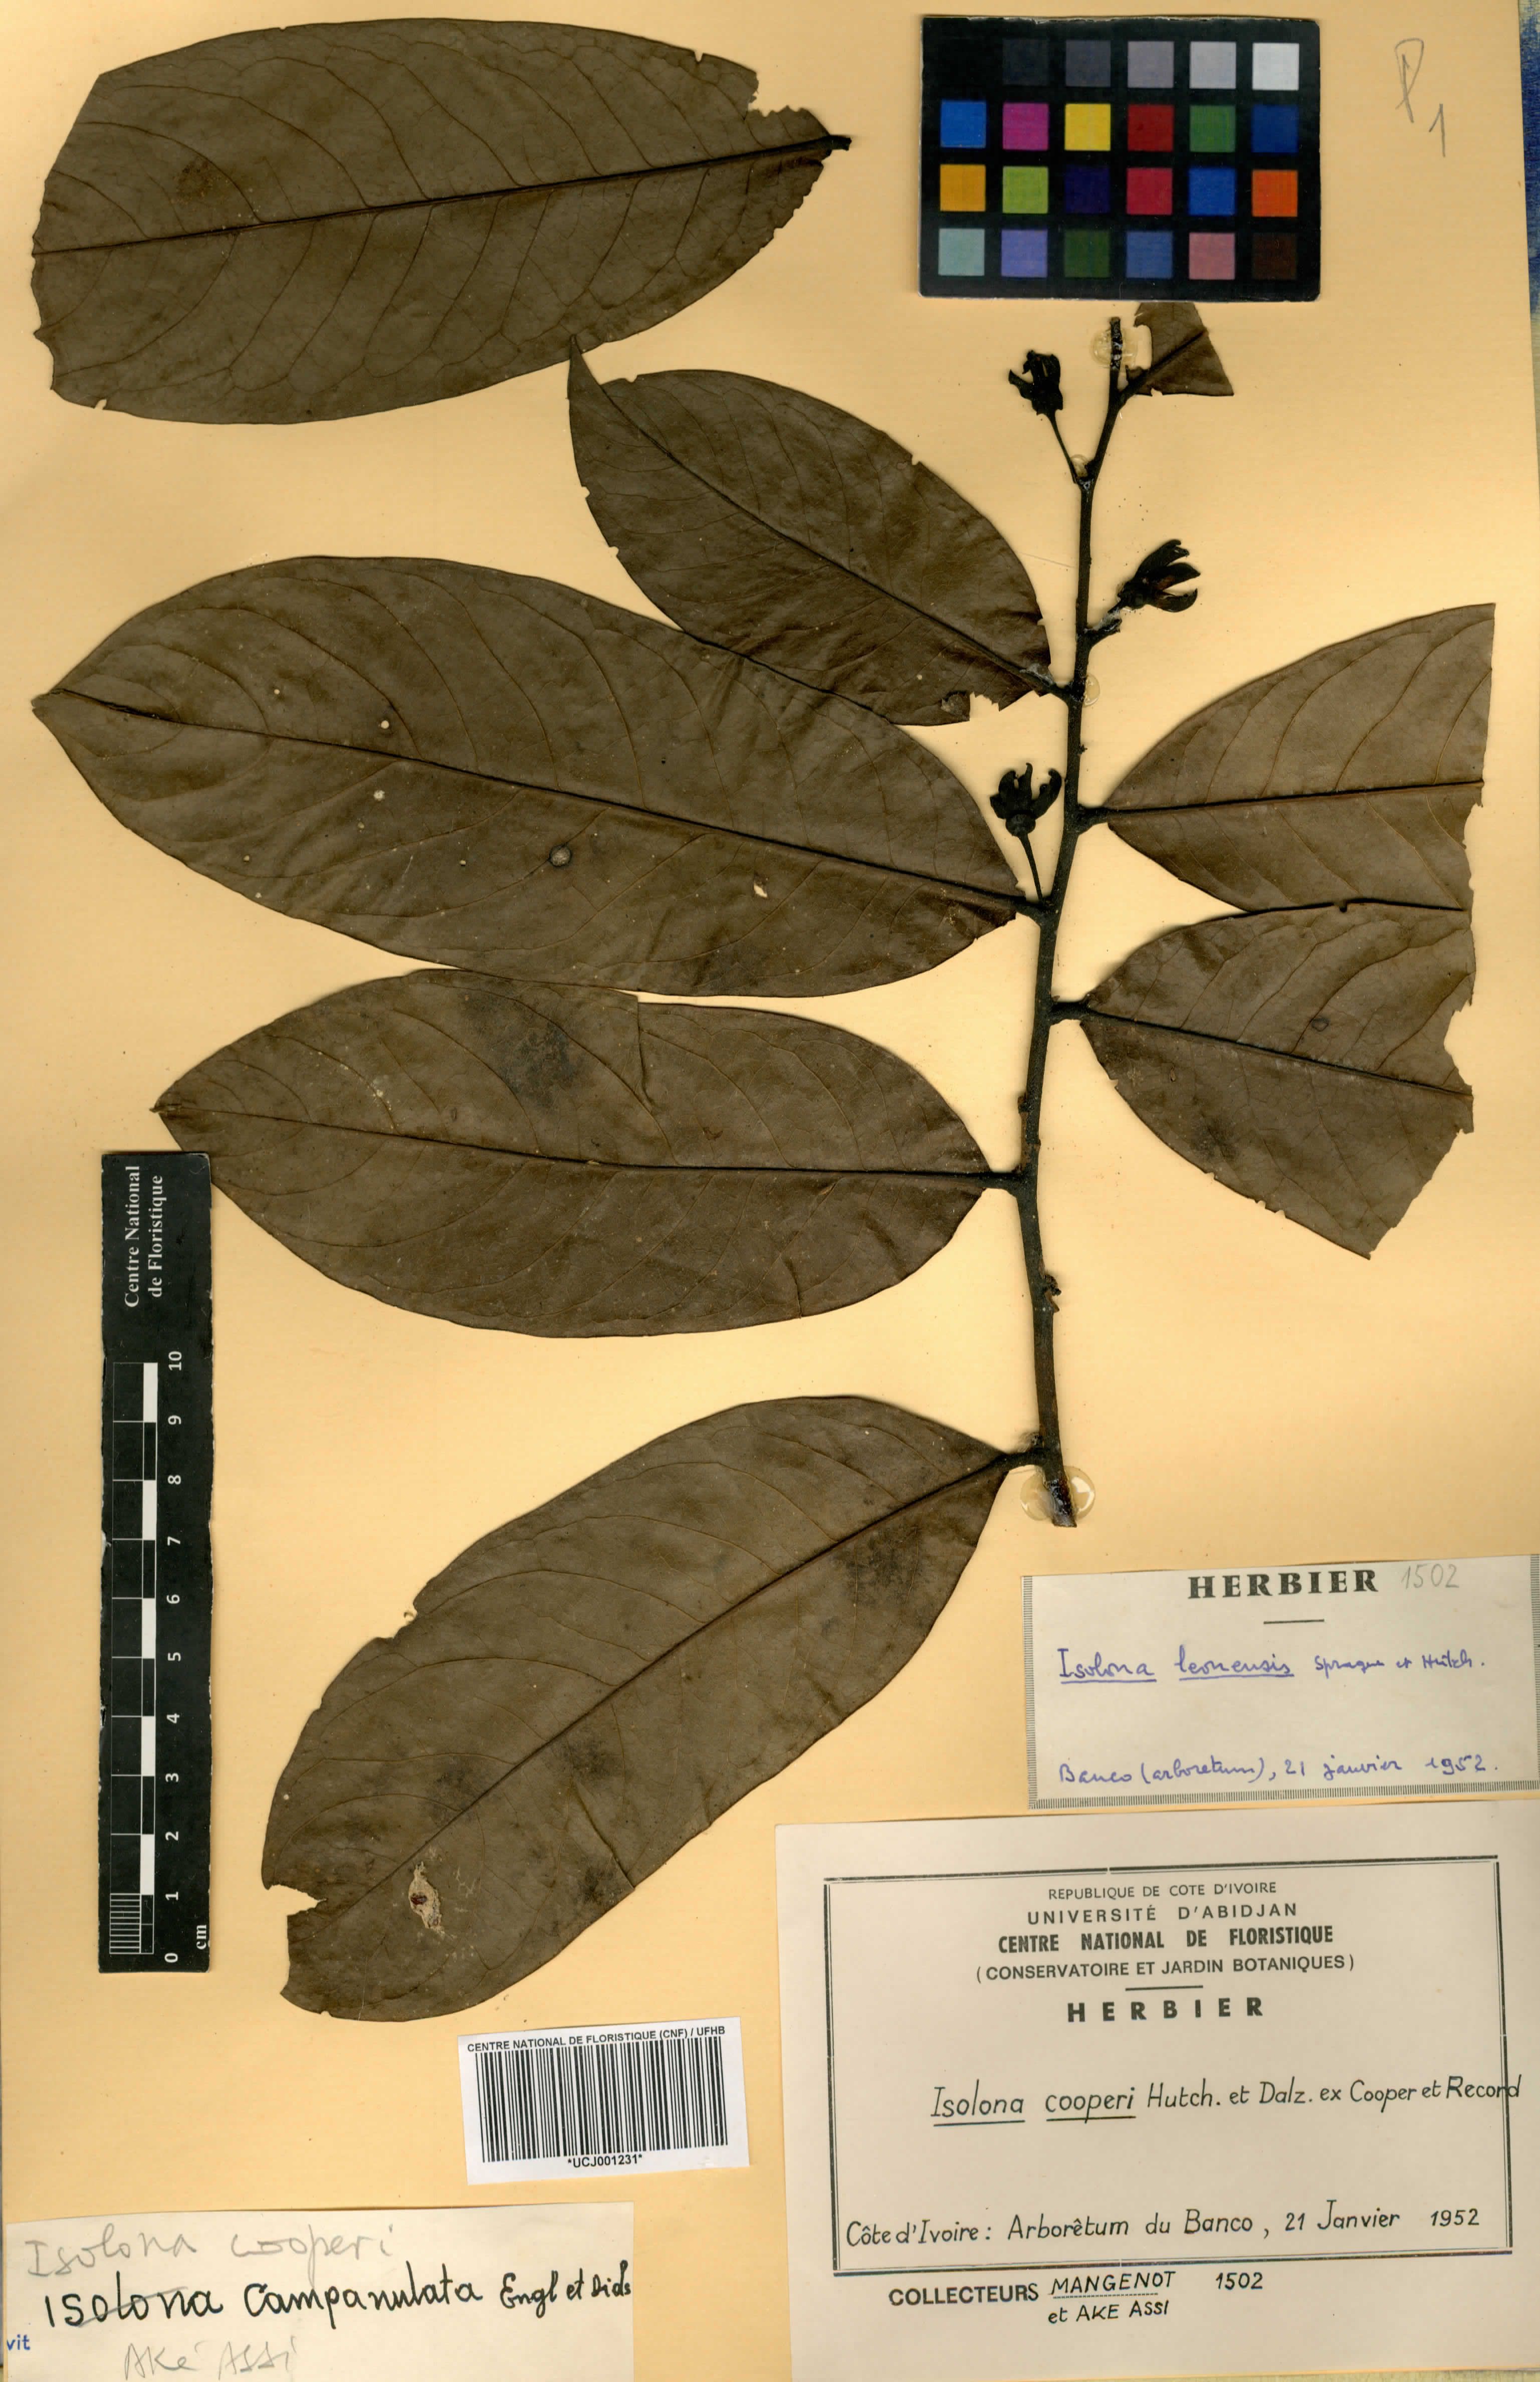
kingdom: Plantae
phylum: Tracheophyta
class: Magnoliopsida
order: Magnoliales
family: Annonaceae
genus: Isolona
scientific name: Isolona cooperi
